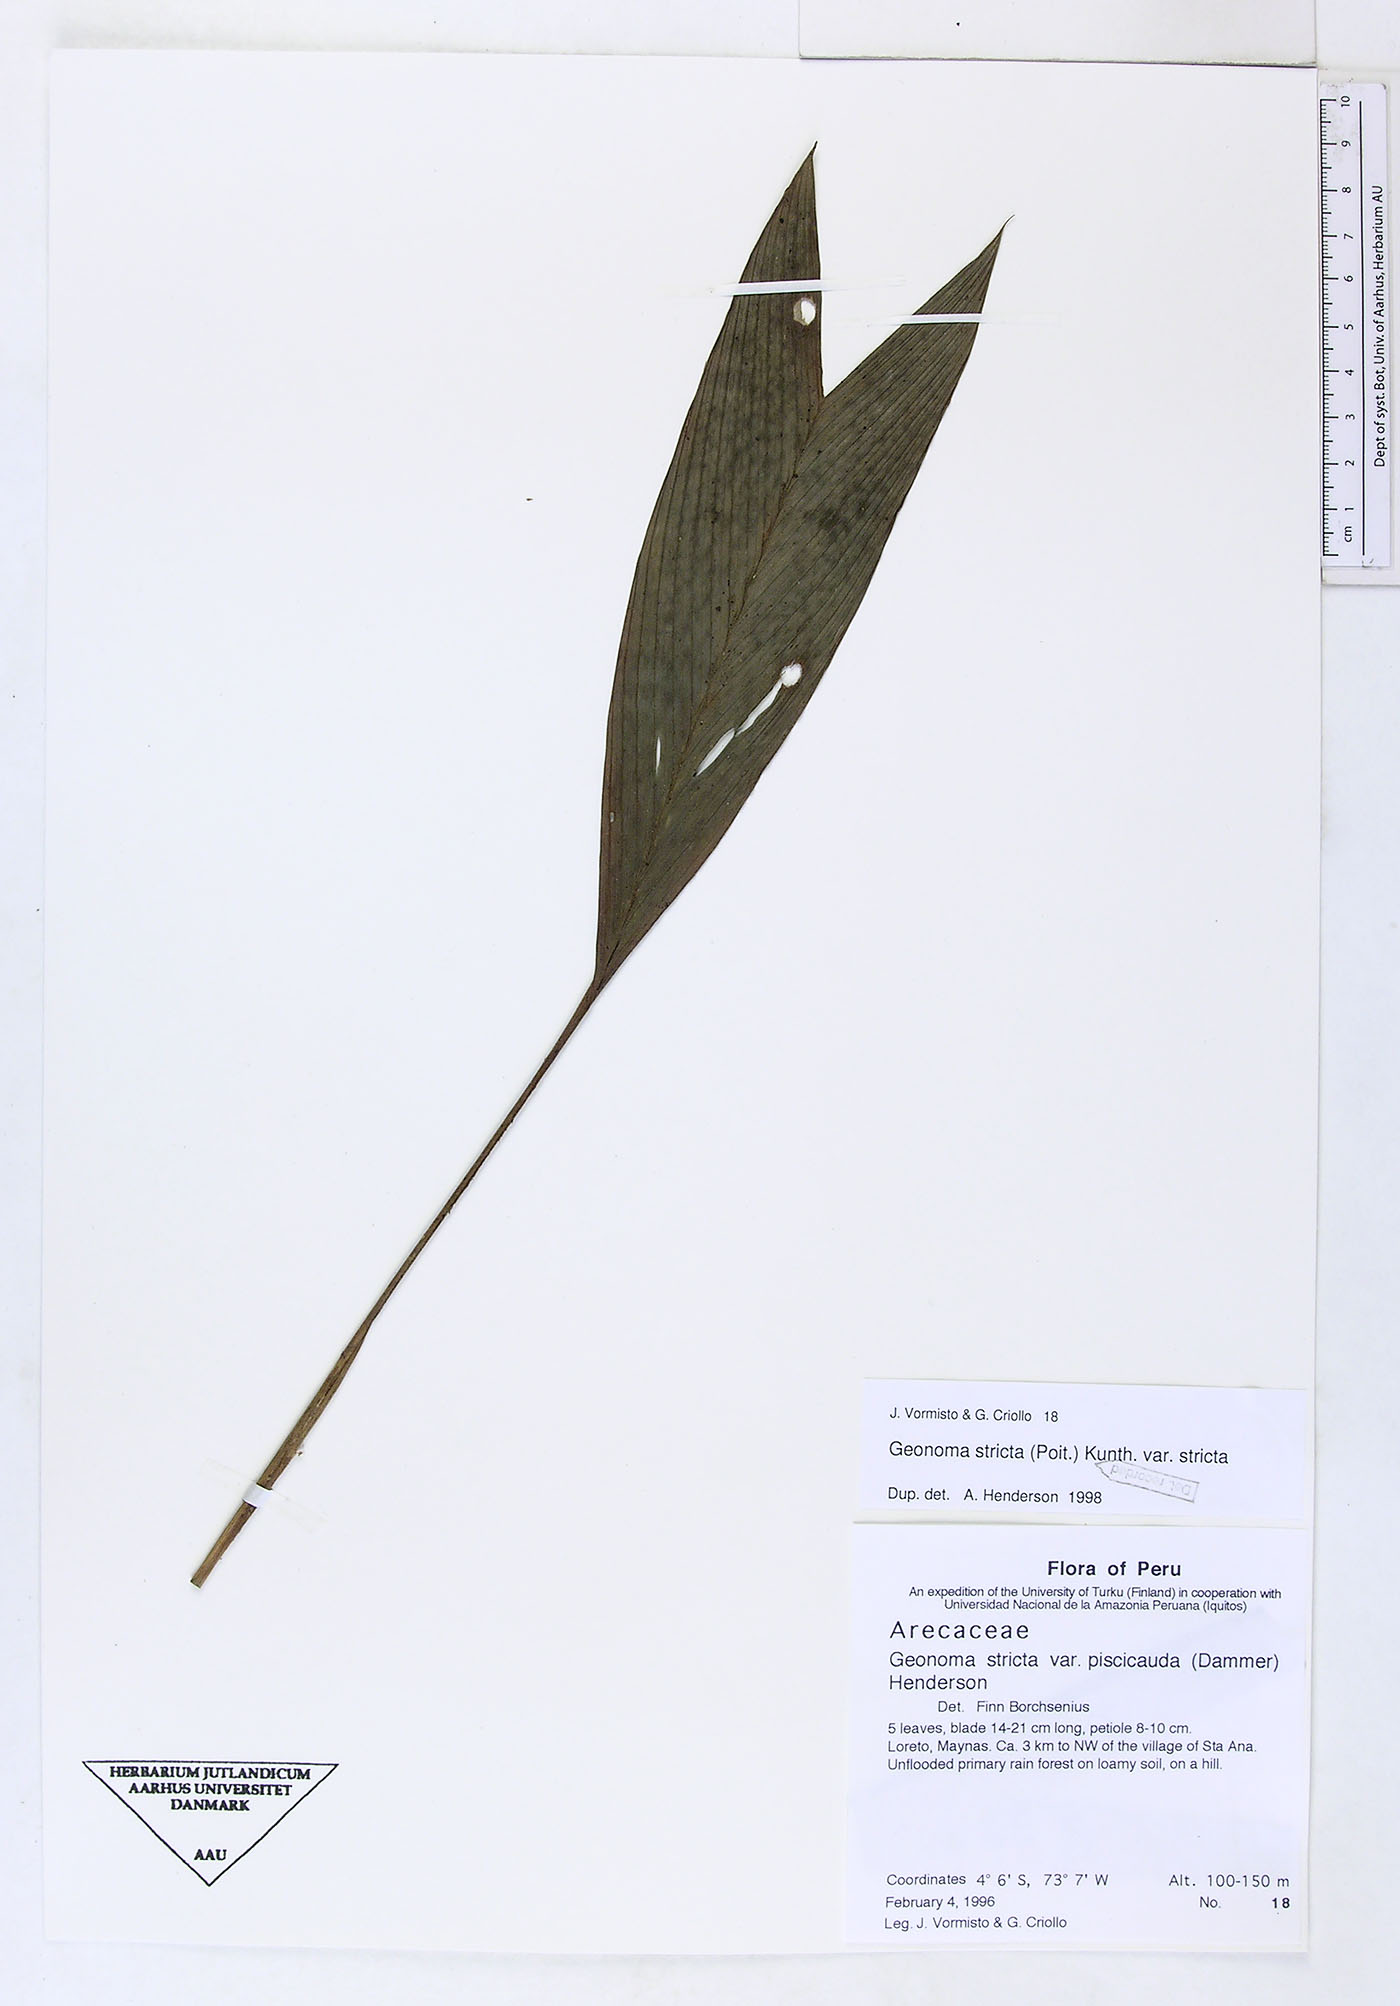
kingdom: Plantae
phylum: Tracheophyta
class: Liliopsida
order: Arecales
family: Arecaceae
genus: Geonoma
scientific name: Geonoma stricta
